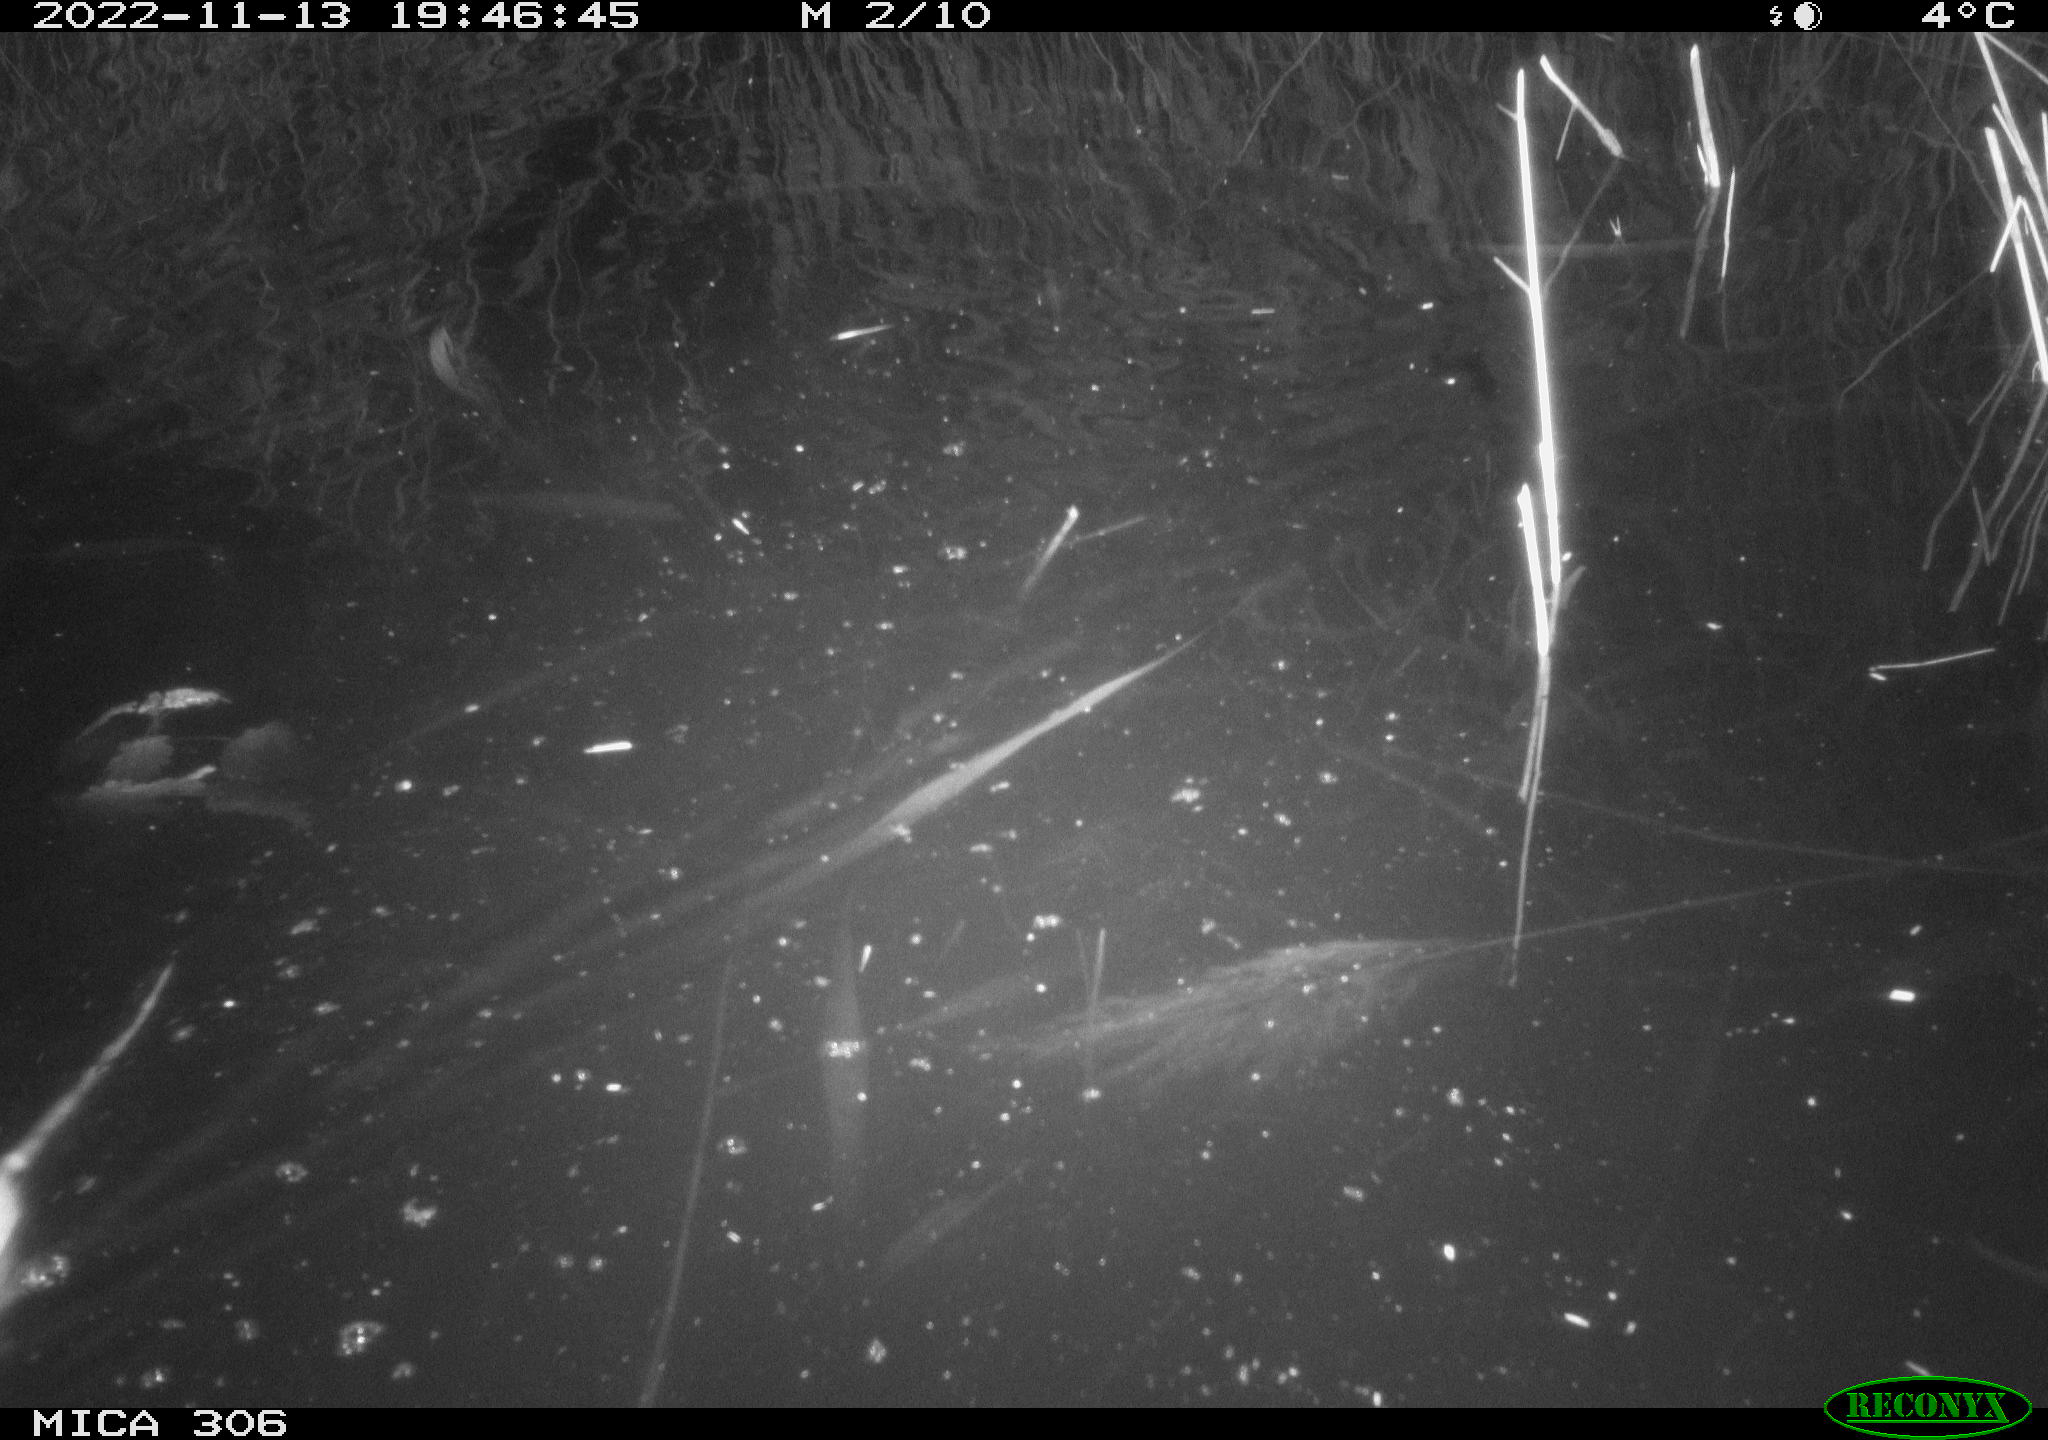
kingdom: Animalia
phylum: Chordata
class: Mammalia
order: Rodentia
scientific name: Rodentia
